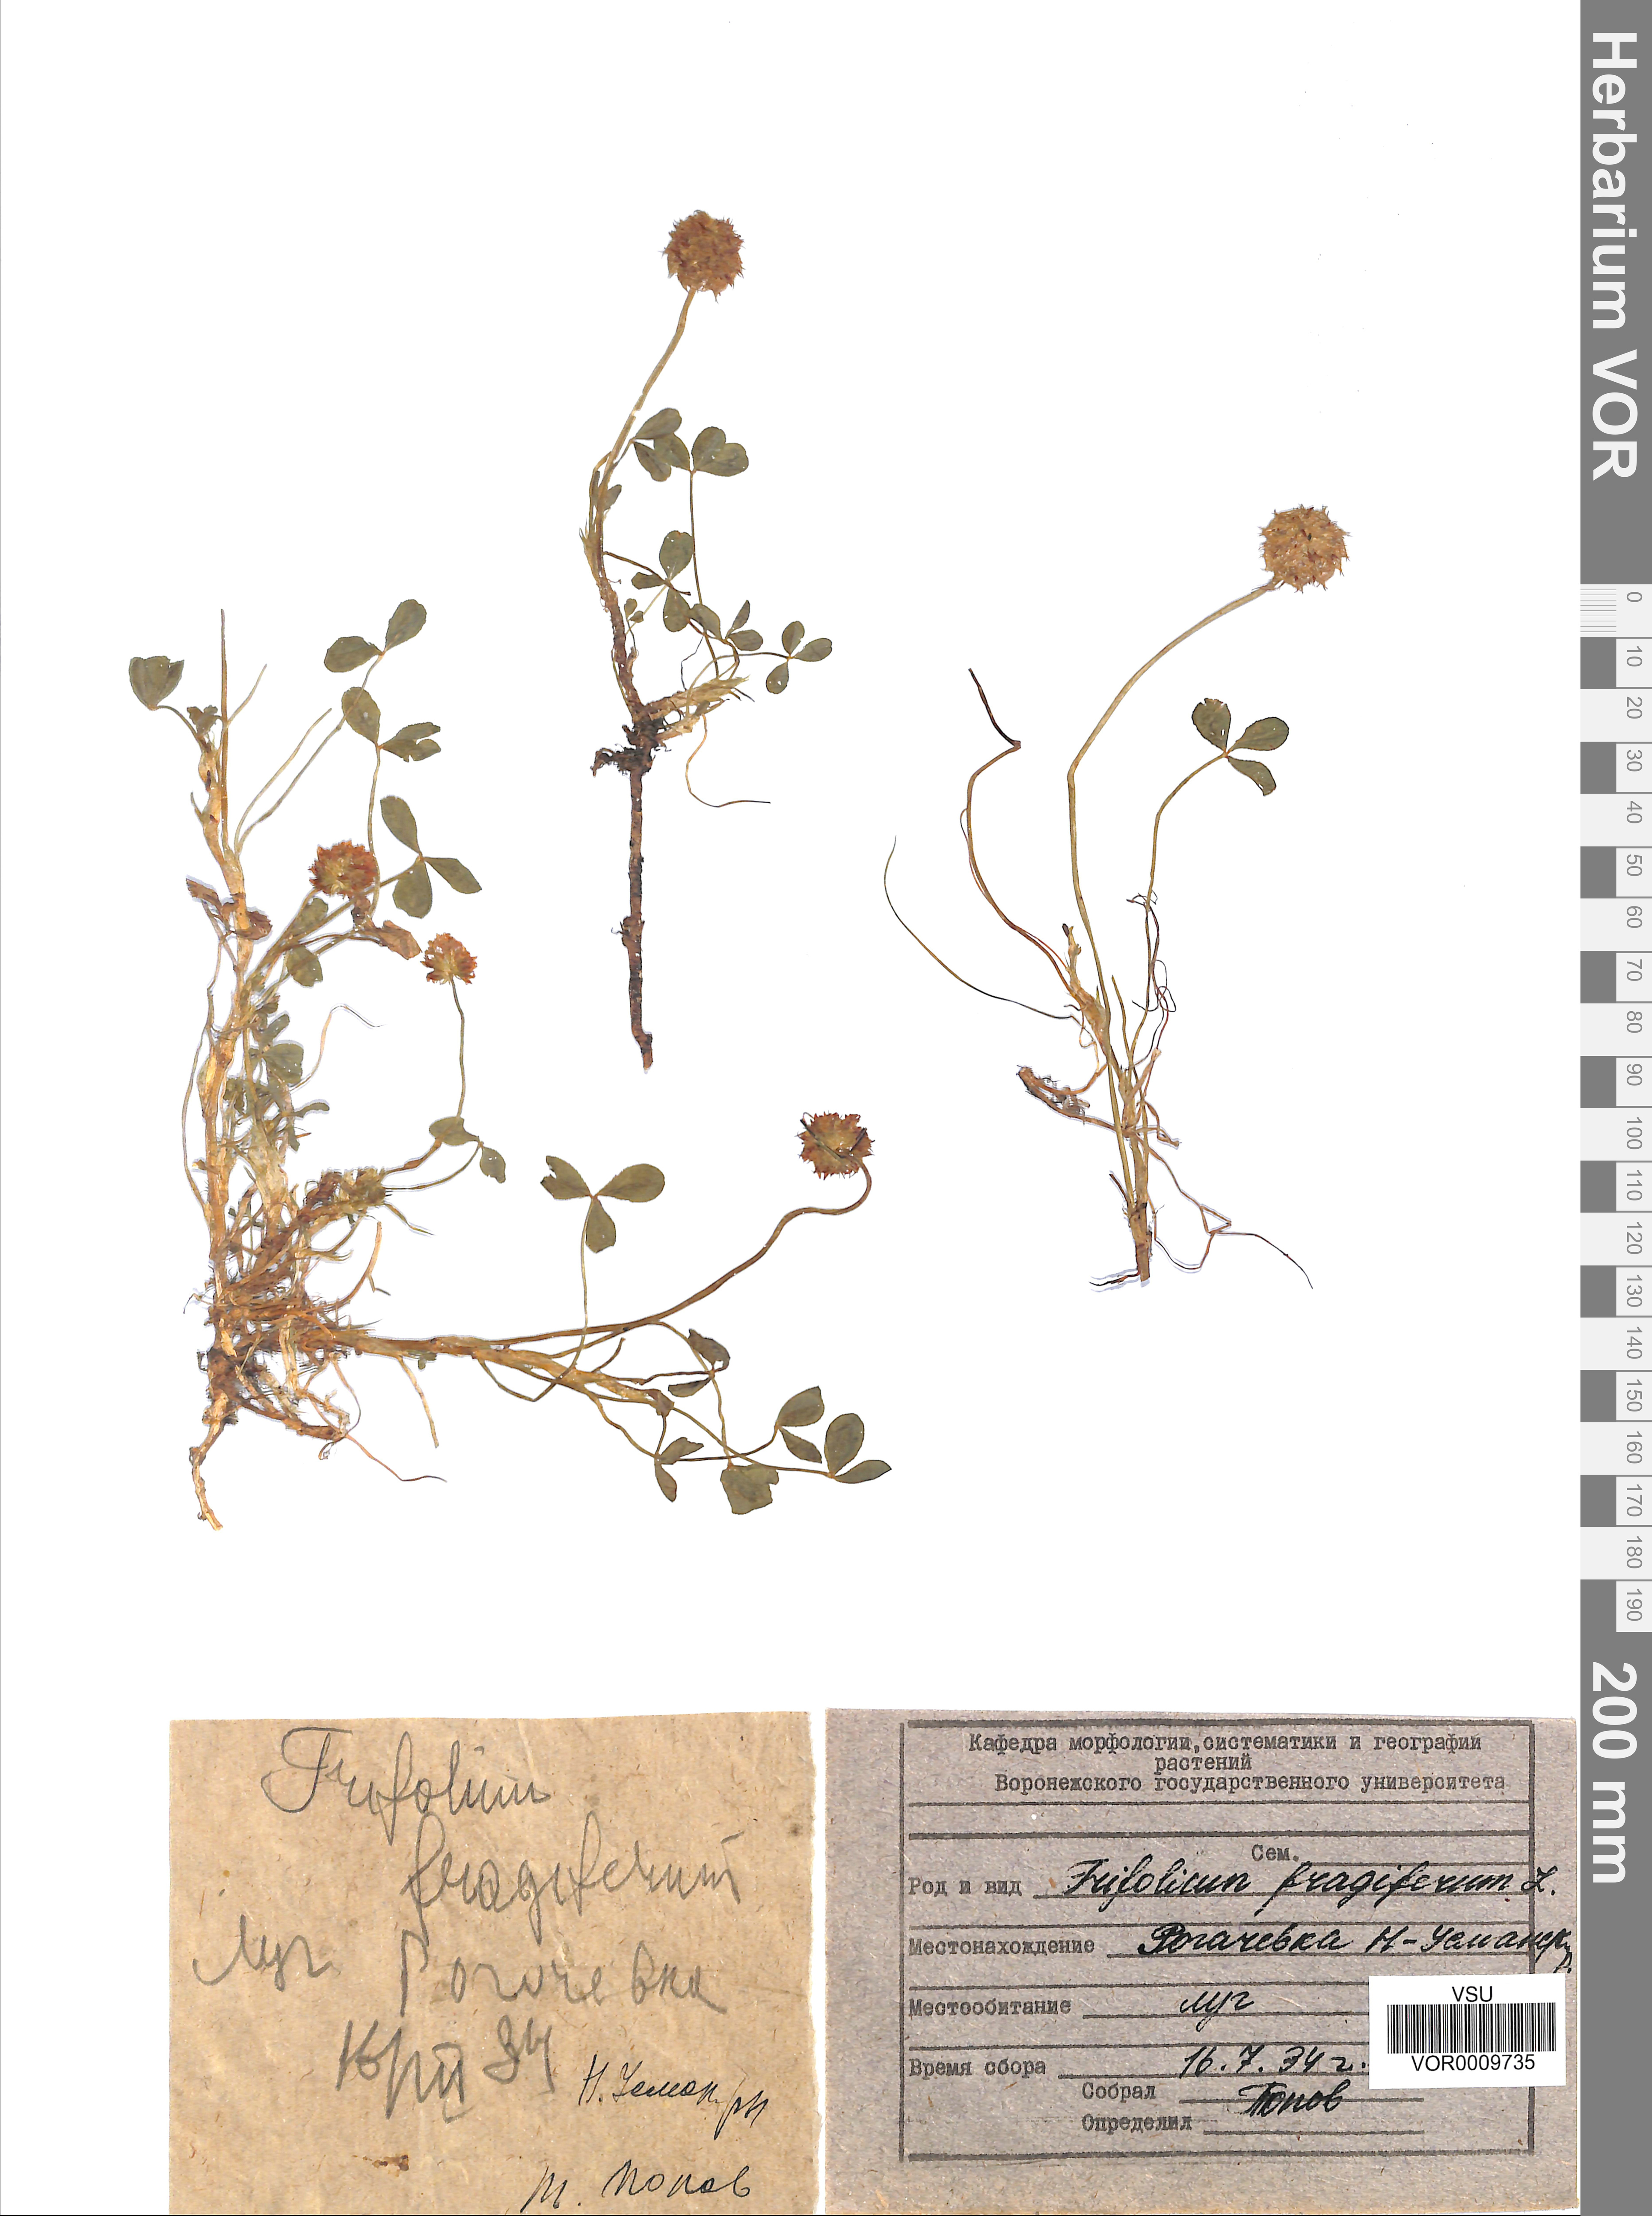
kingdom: Plantae
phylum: Tracheophyta
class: Magnoliopsida
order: Fabales
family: Fabaceae
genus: Trifolium
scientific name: Trifolium fragiferum
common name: Strawberry clover
